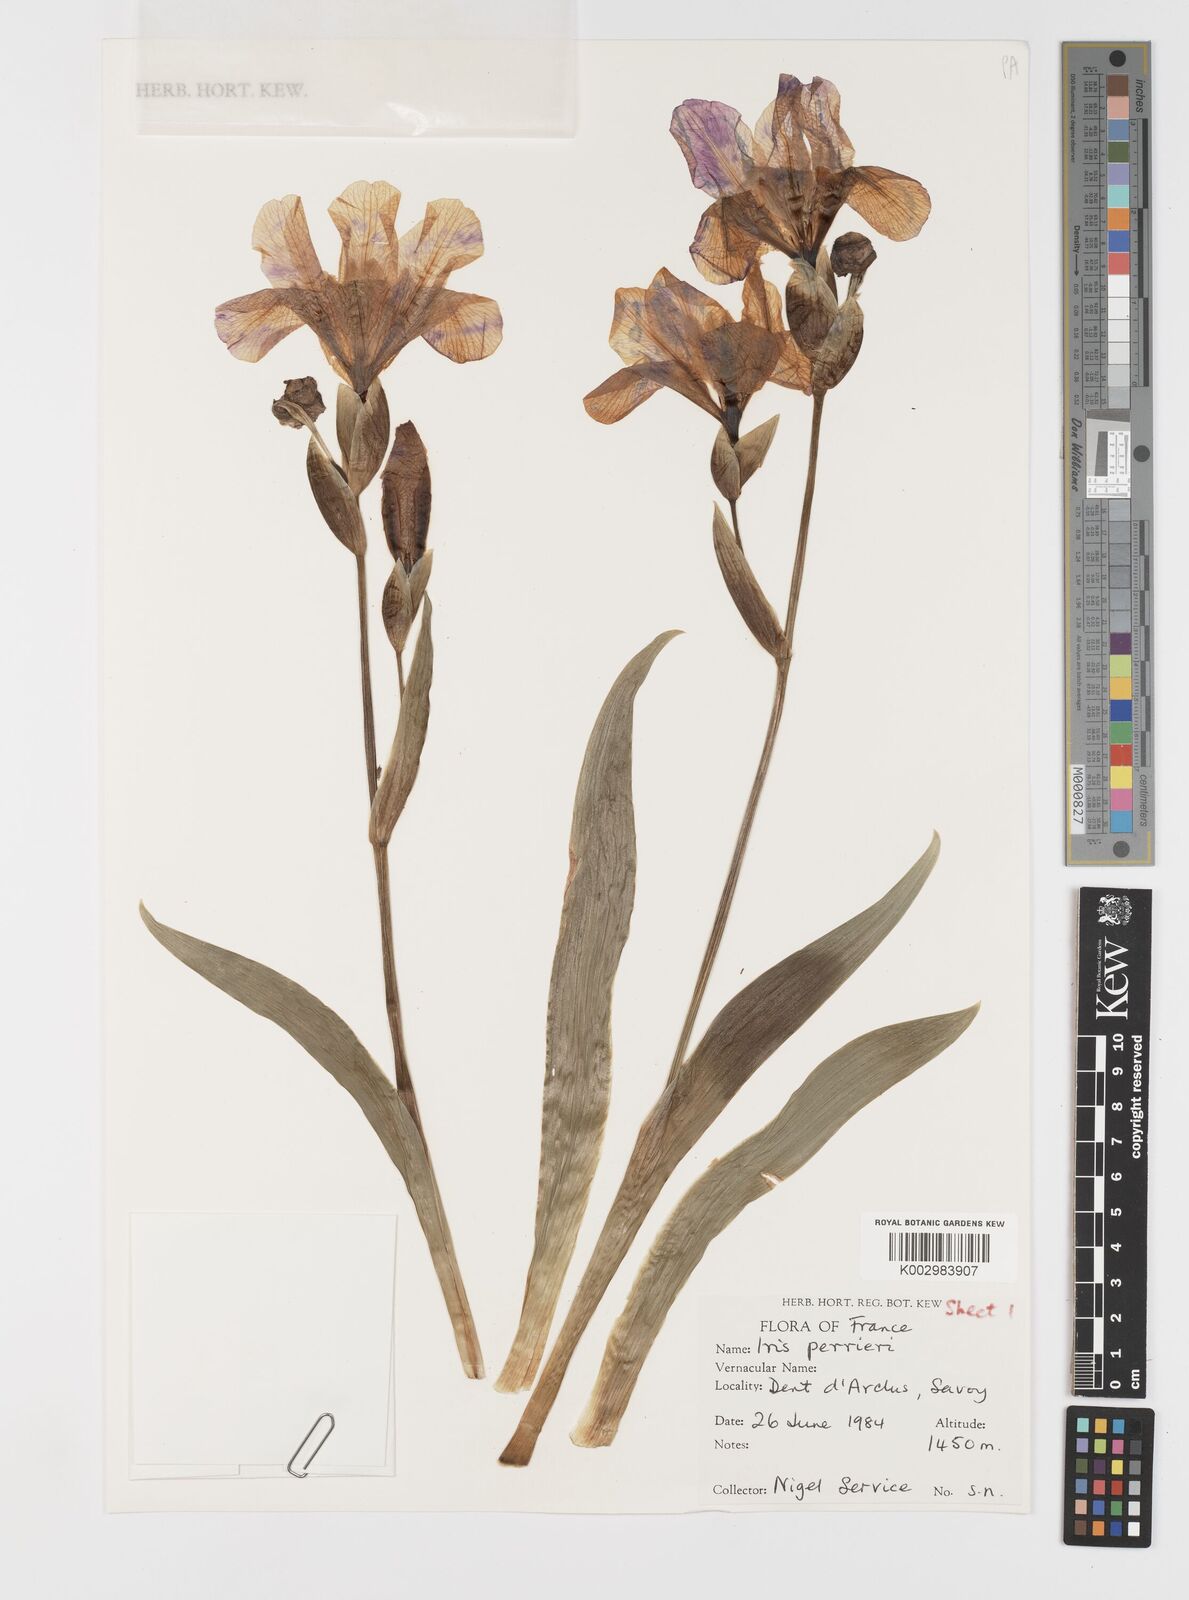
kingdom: Plantae
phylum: Tracheophyta
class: Liliopsida
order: Asparagales
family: Iridaceae
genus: Iris
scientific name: Iris perrieri
